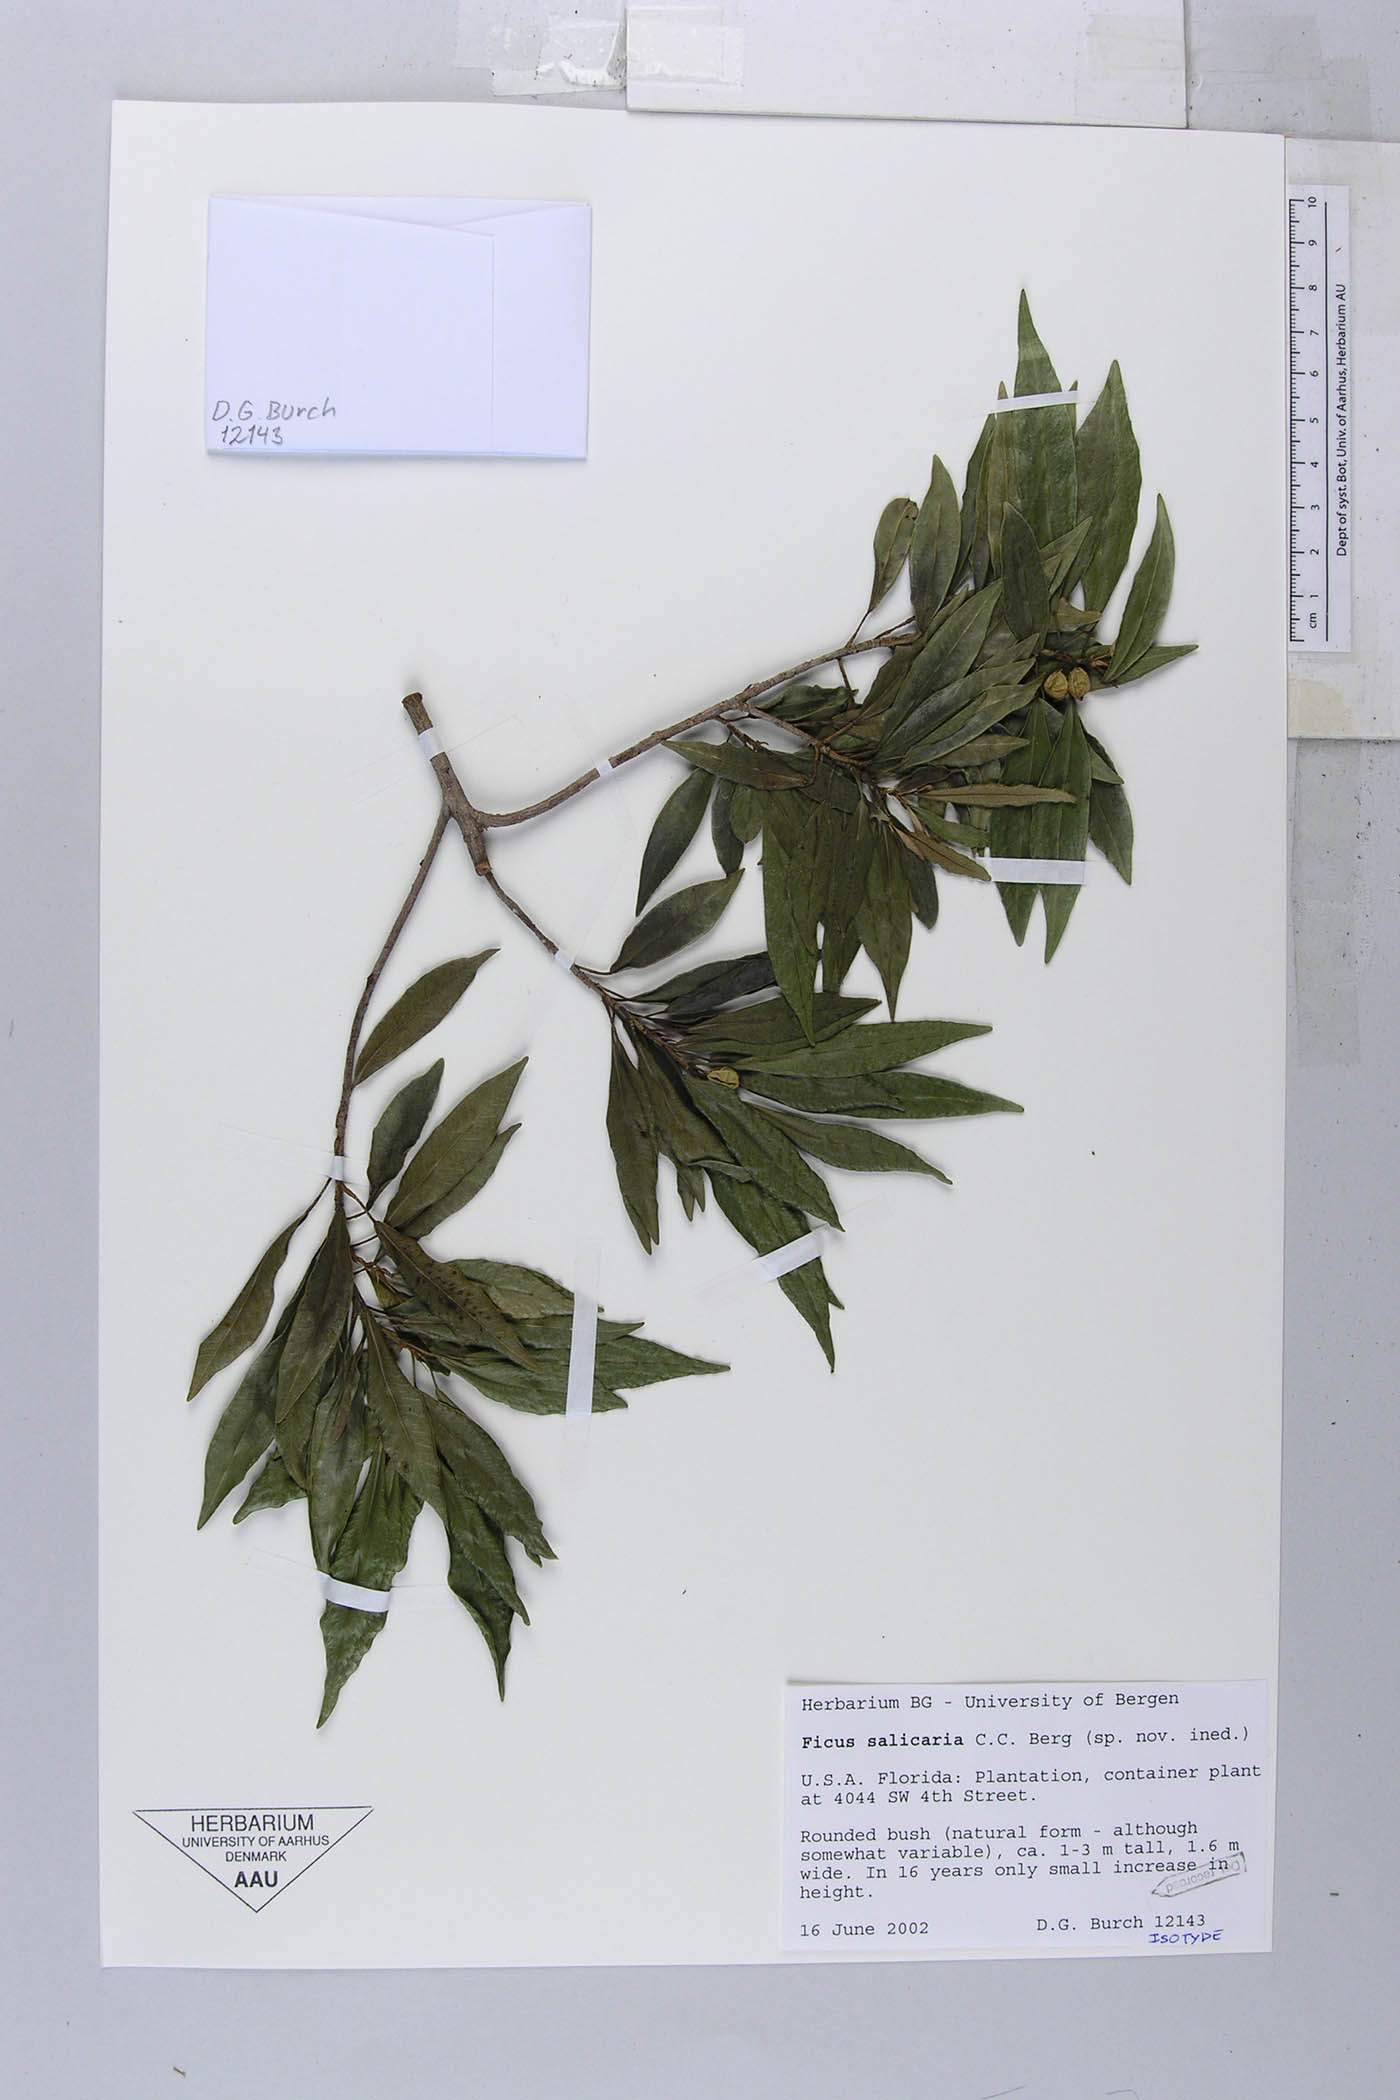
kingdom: Plantae
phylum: Tracheophyta
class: Magnoliopsida
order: Rosales
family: Moraceae
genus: Ficus
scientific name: Ficus salicaria
